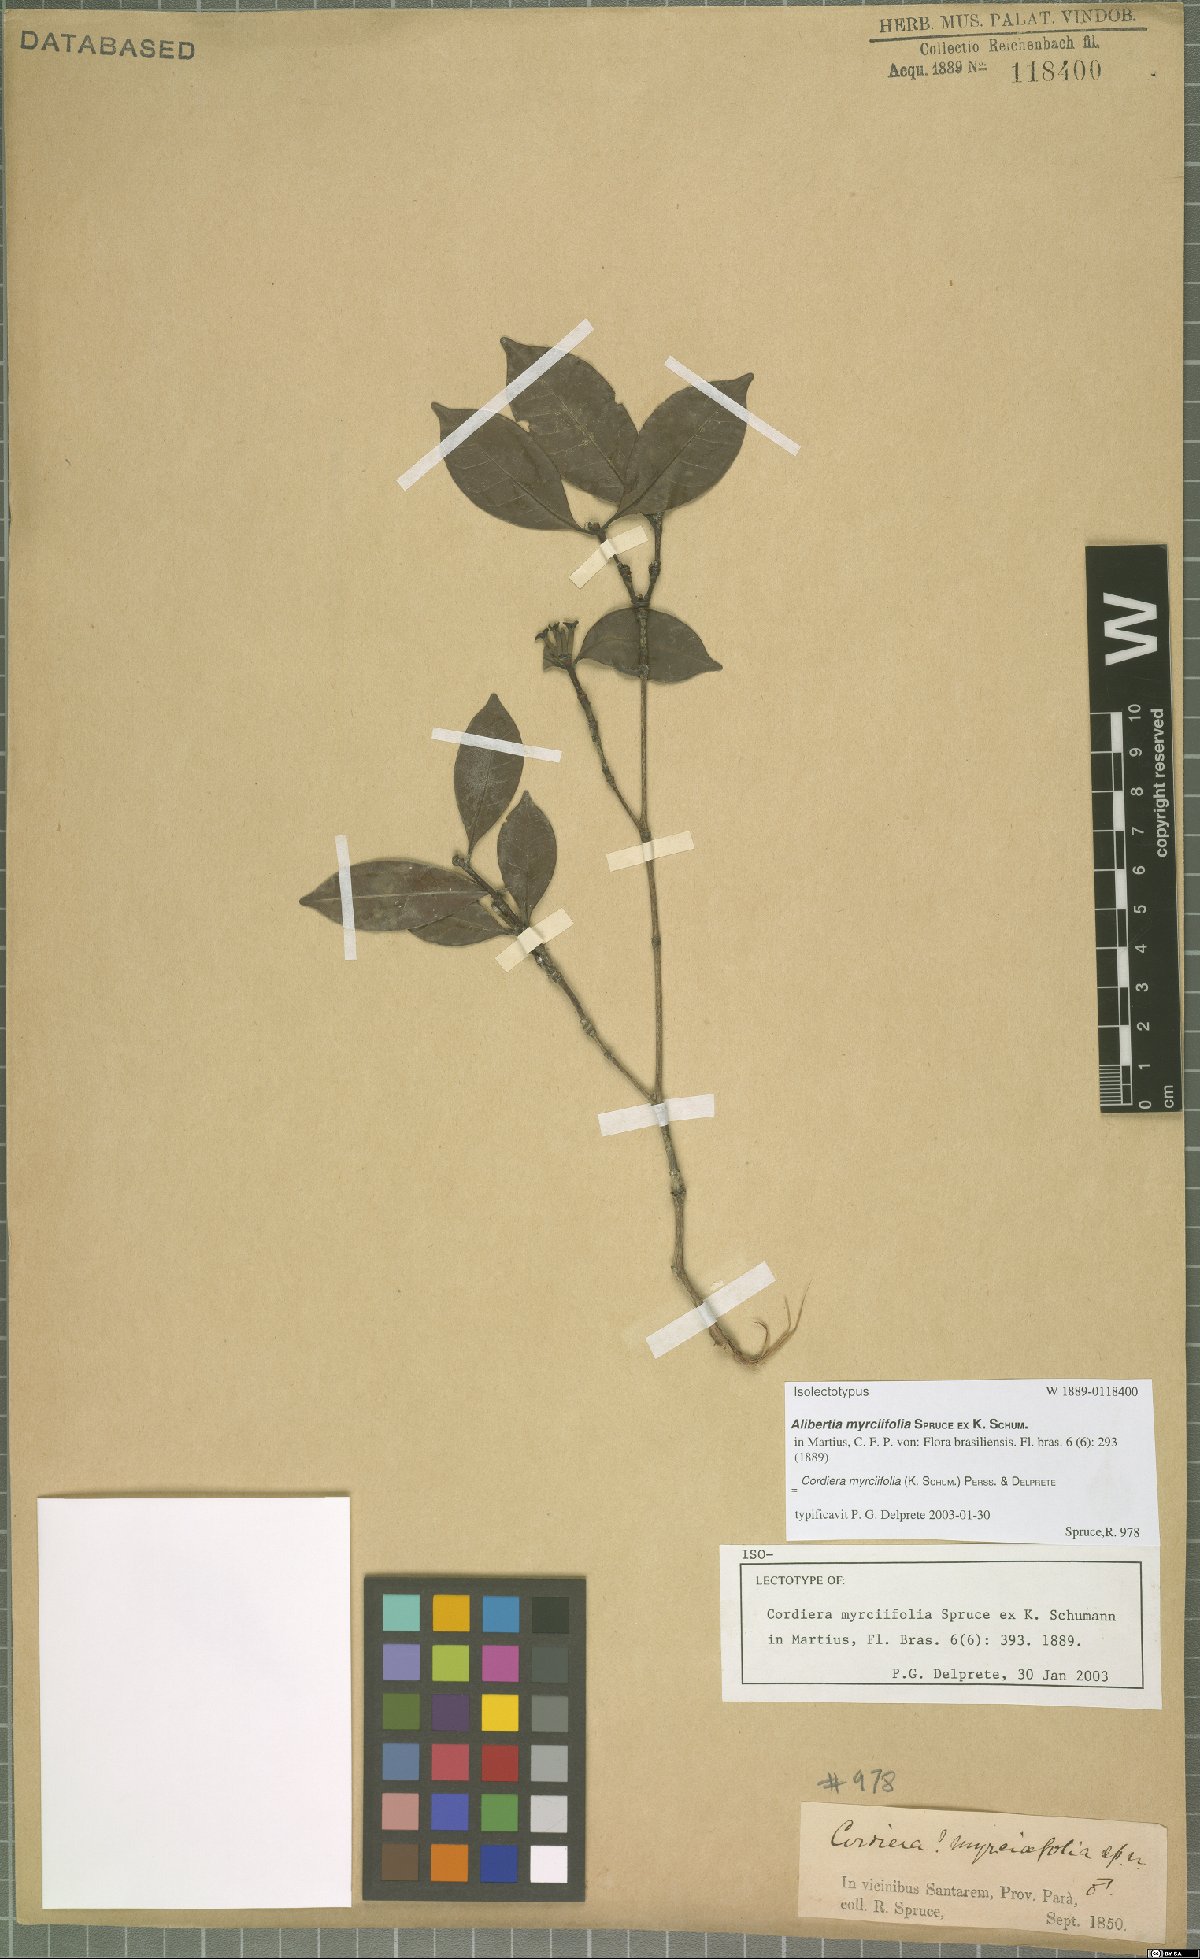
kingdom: Plantae
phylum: Tracheophyta
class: Magnoliopsida
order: Gentianales
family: Rubiaceae
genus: Cordiera
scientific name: Cordiera myrciifolia
